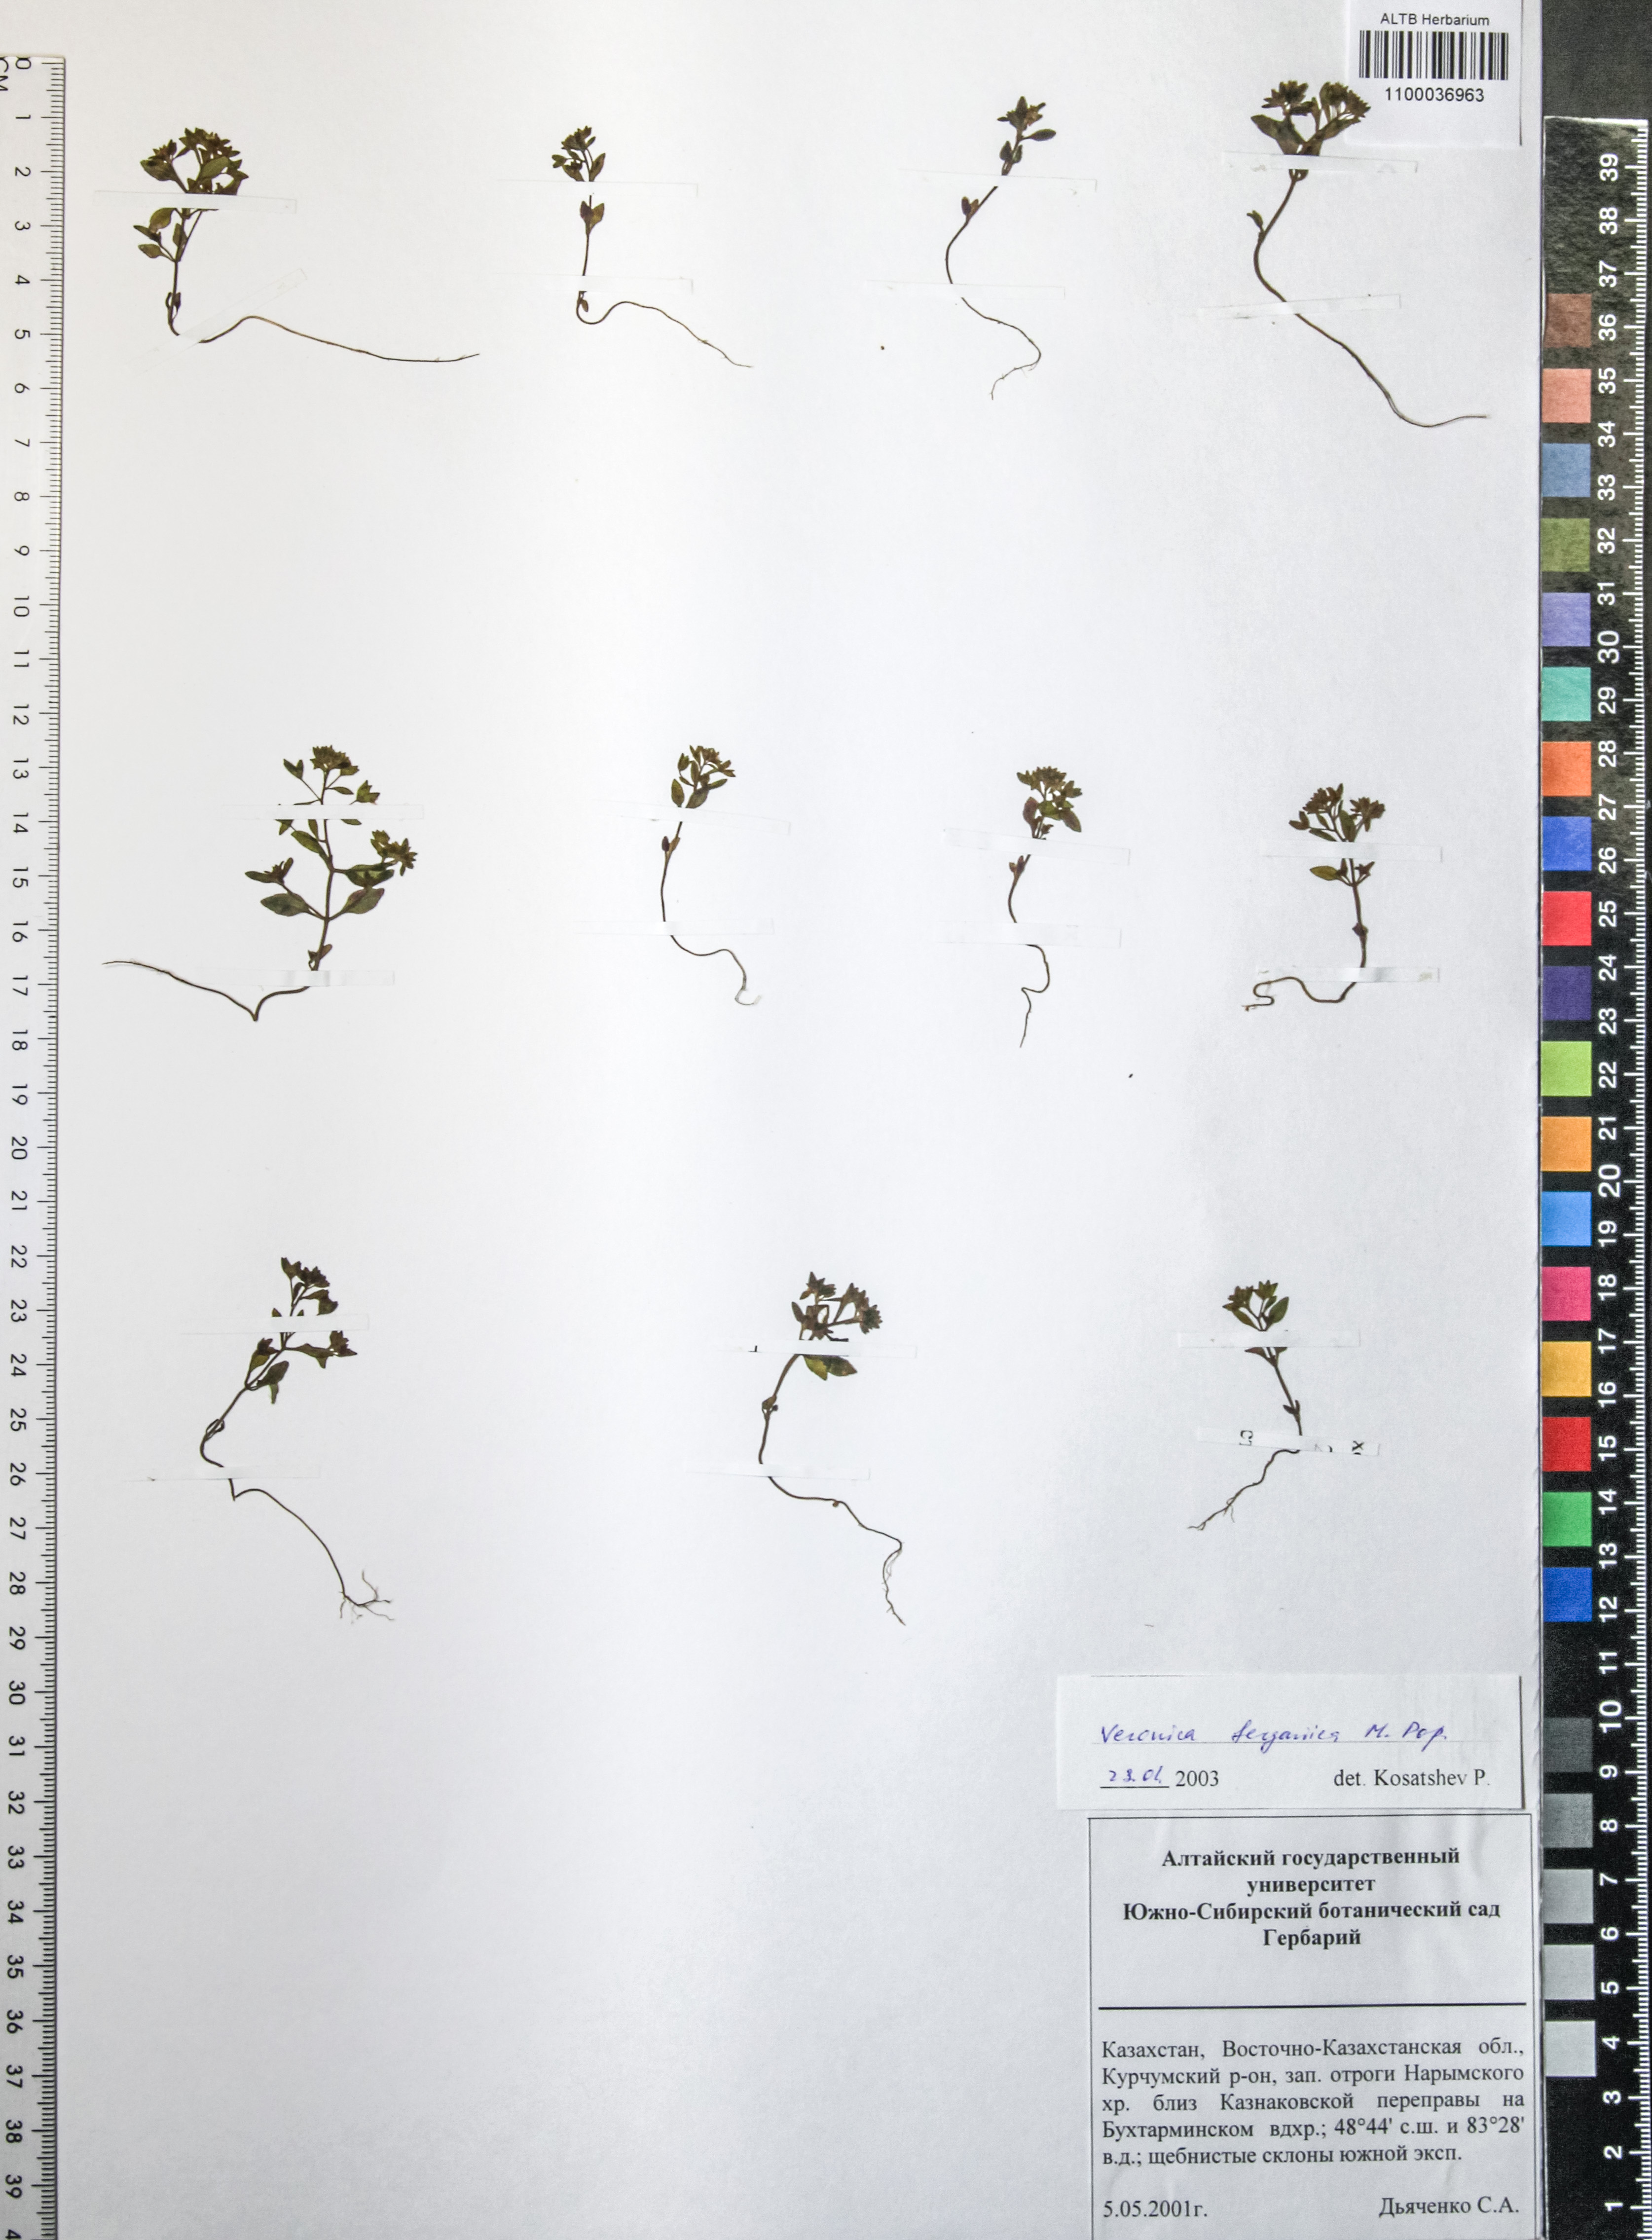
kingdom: Plantae
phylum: Tracheophyta
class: Magnoliopsida
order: Lamiales
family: Plantaginaceae
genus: Veronica
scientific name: Veronica ferganica
